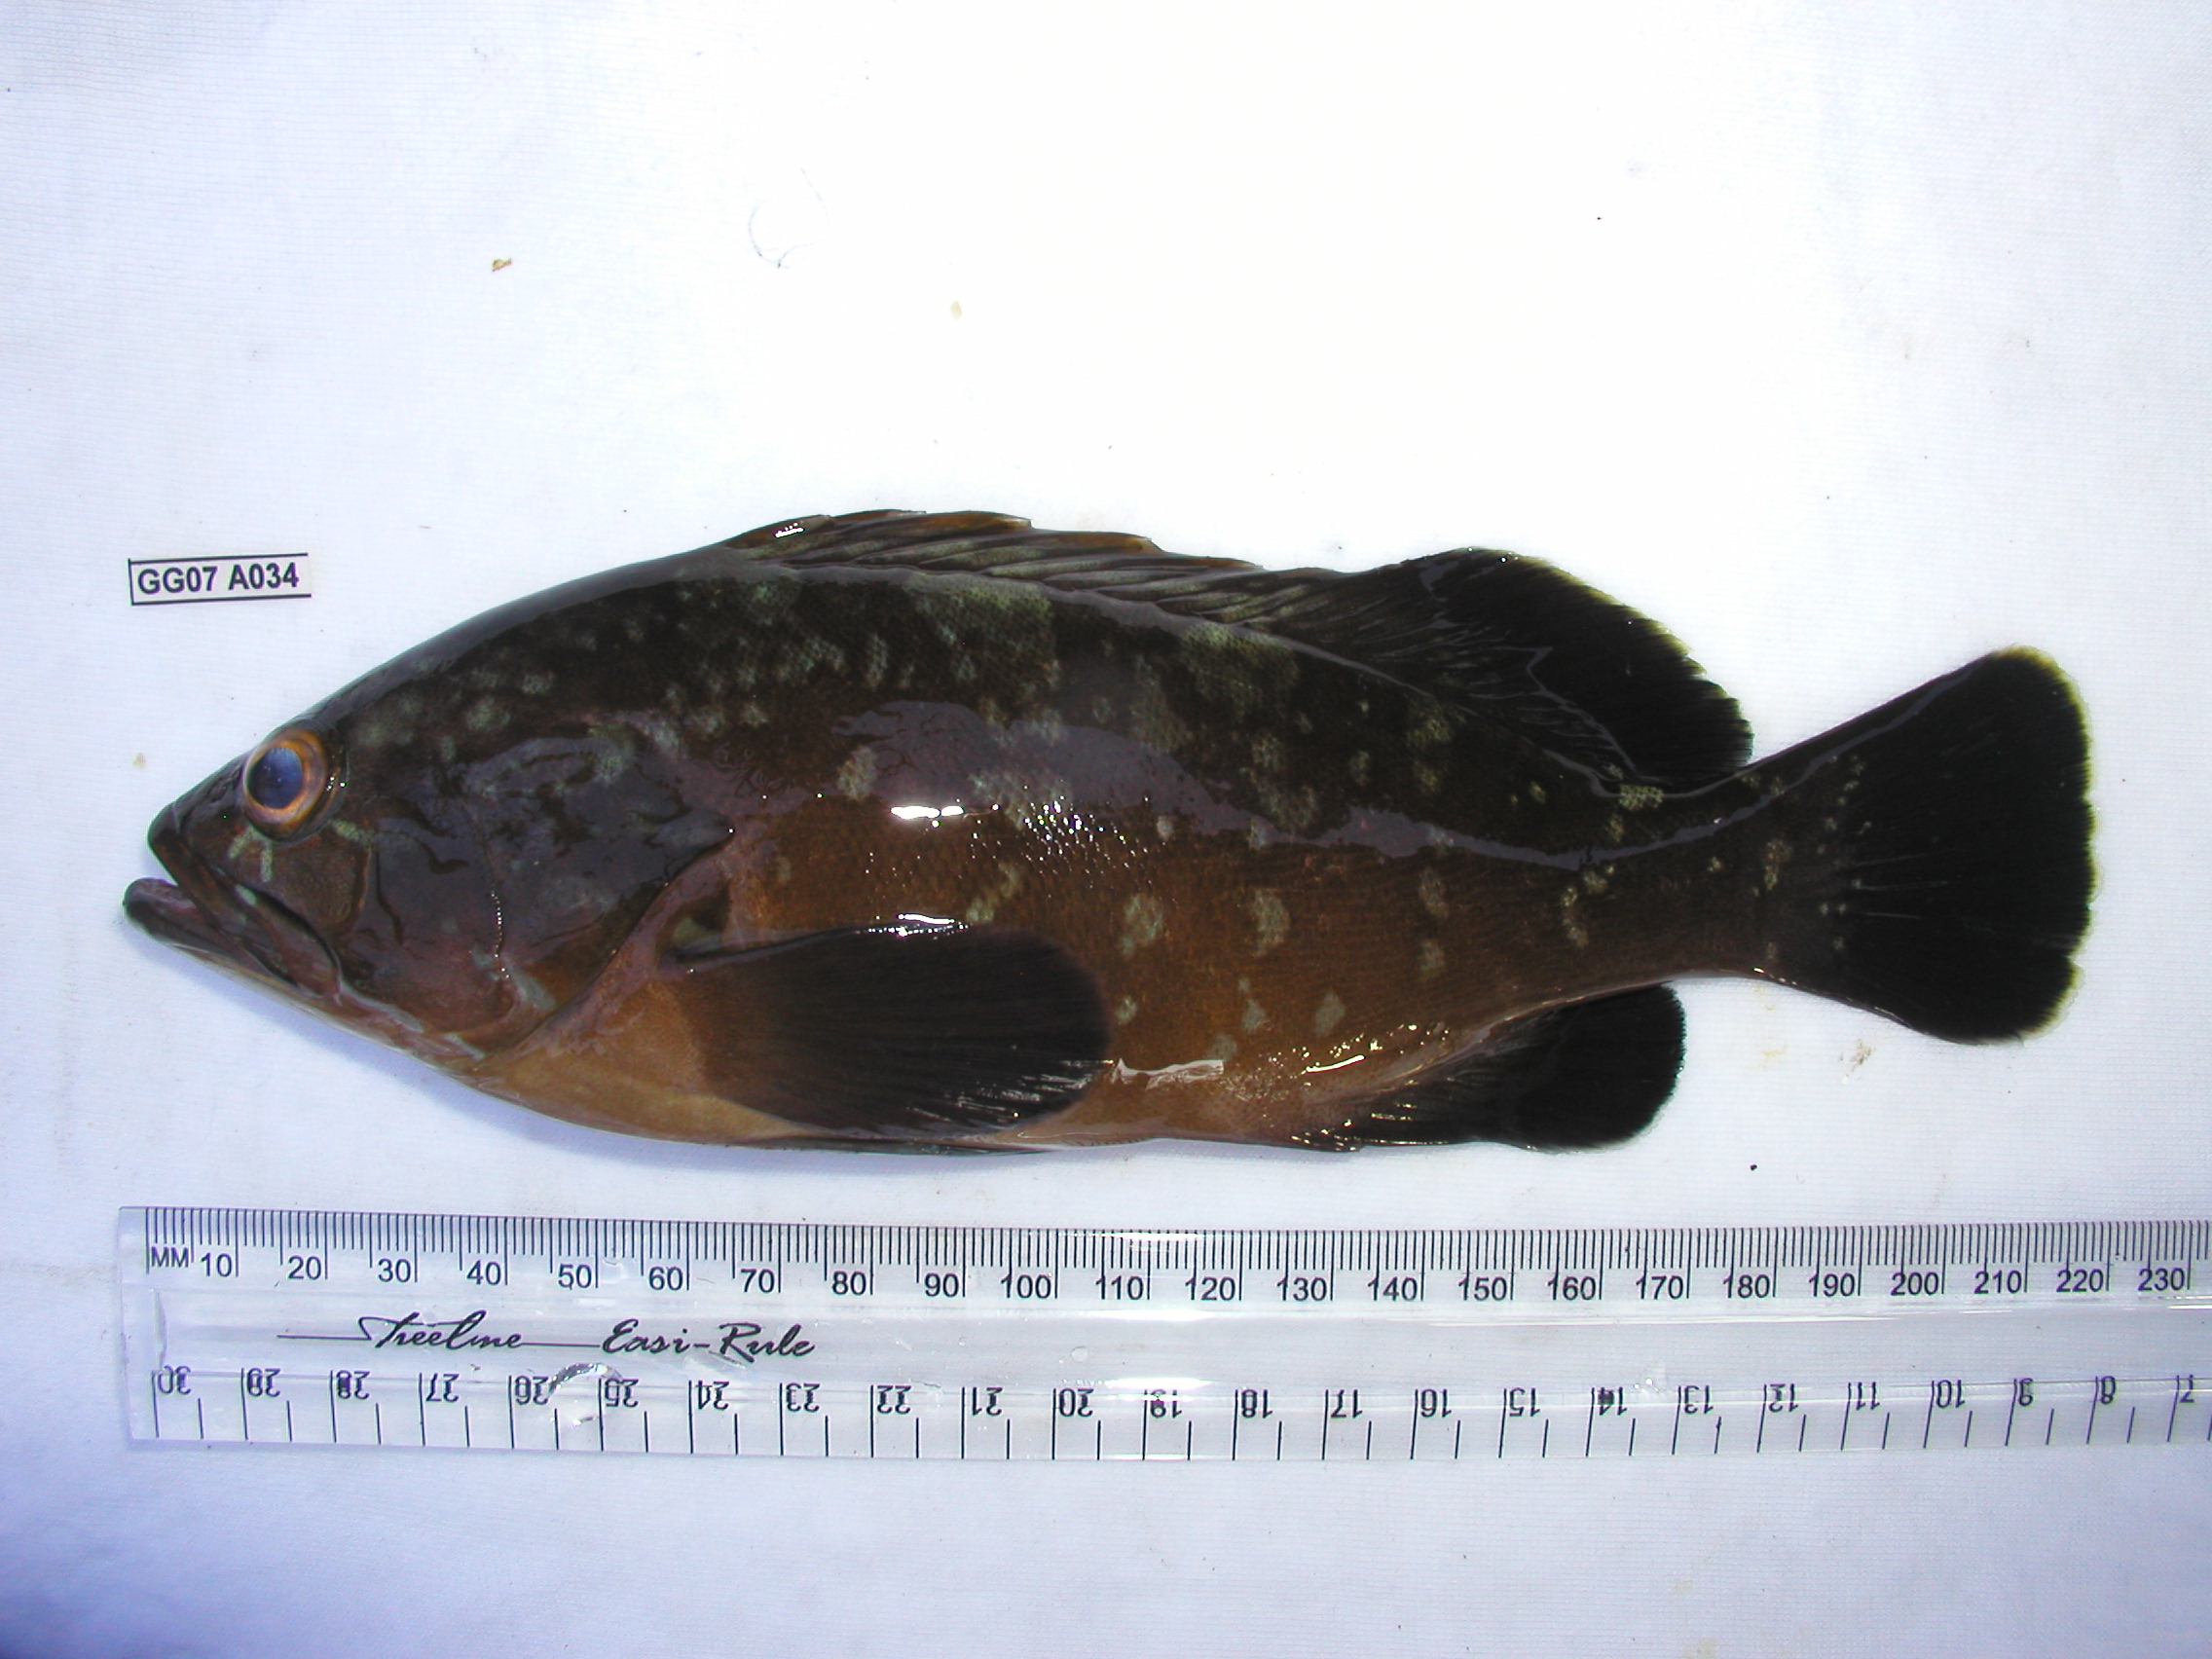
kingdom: Animalia
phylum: Chordata
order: Perciformes
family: Serranidae
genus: Epinephelus
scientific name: Epinephelus marginatus
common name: Dusky grouper
